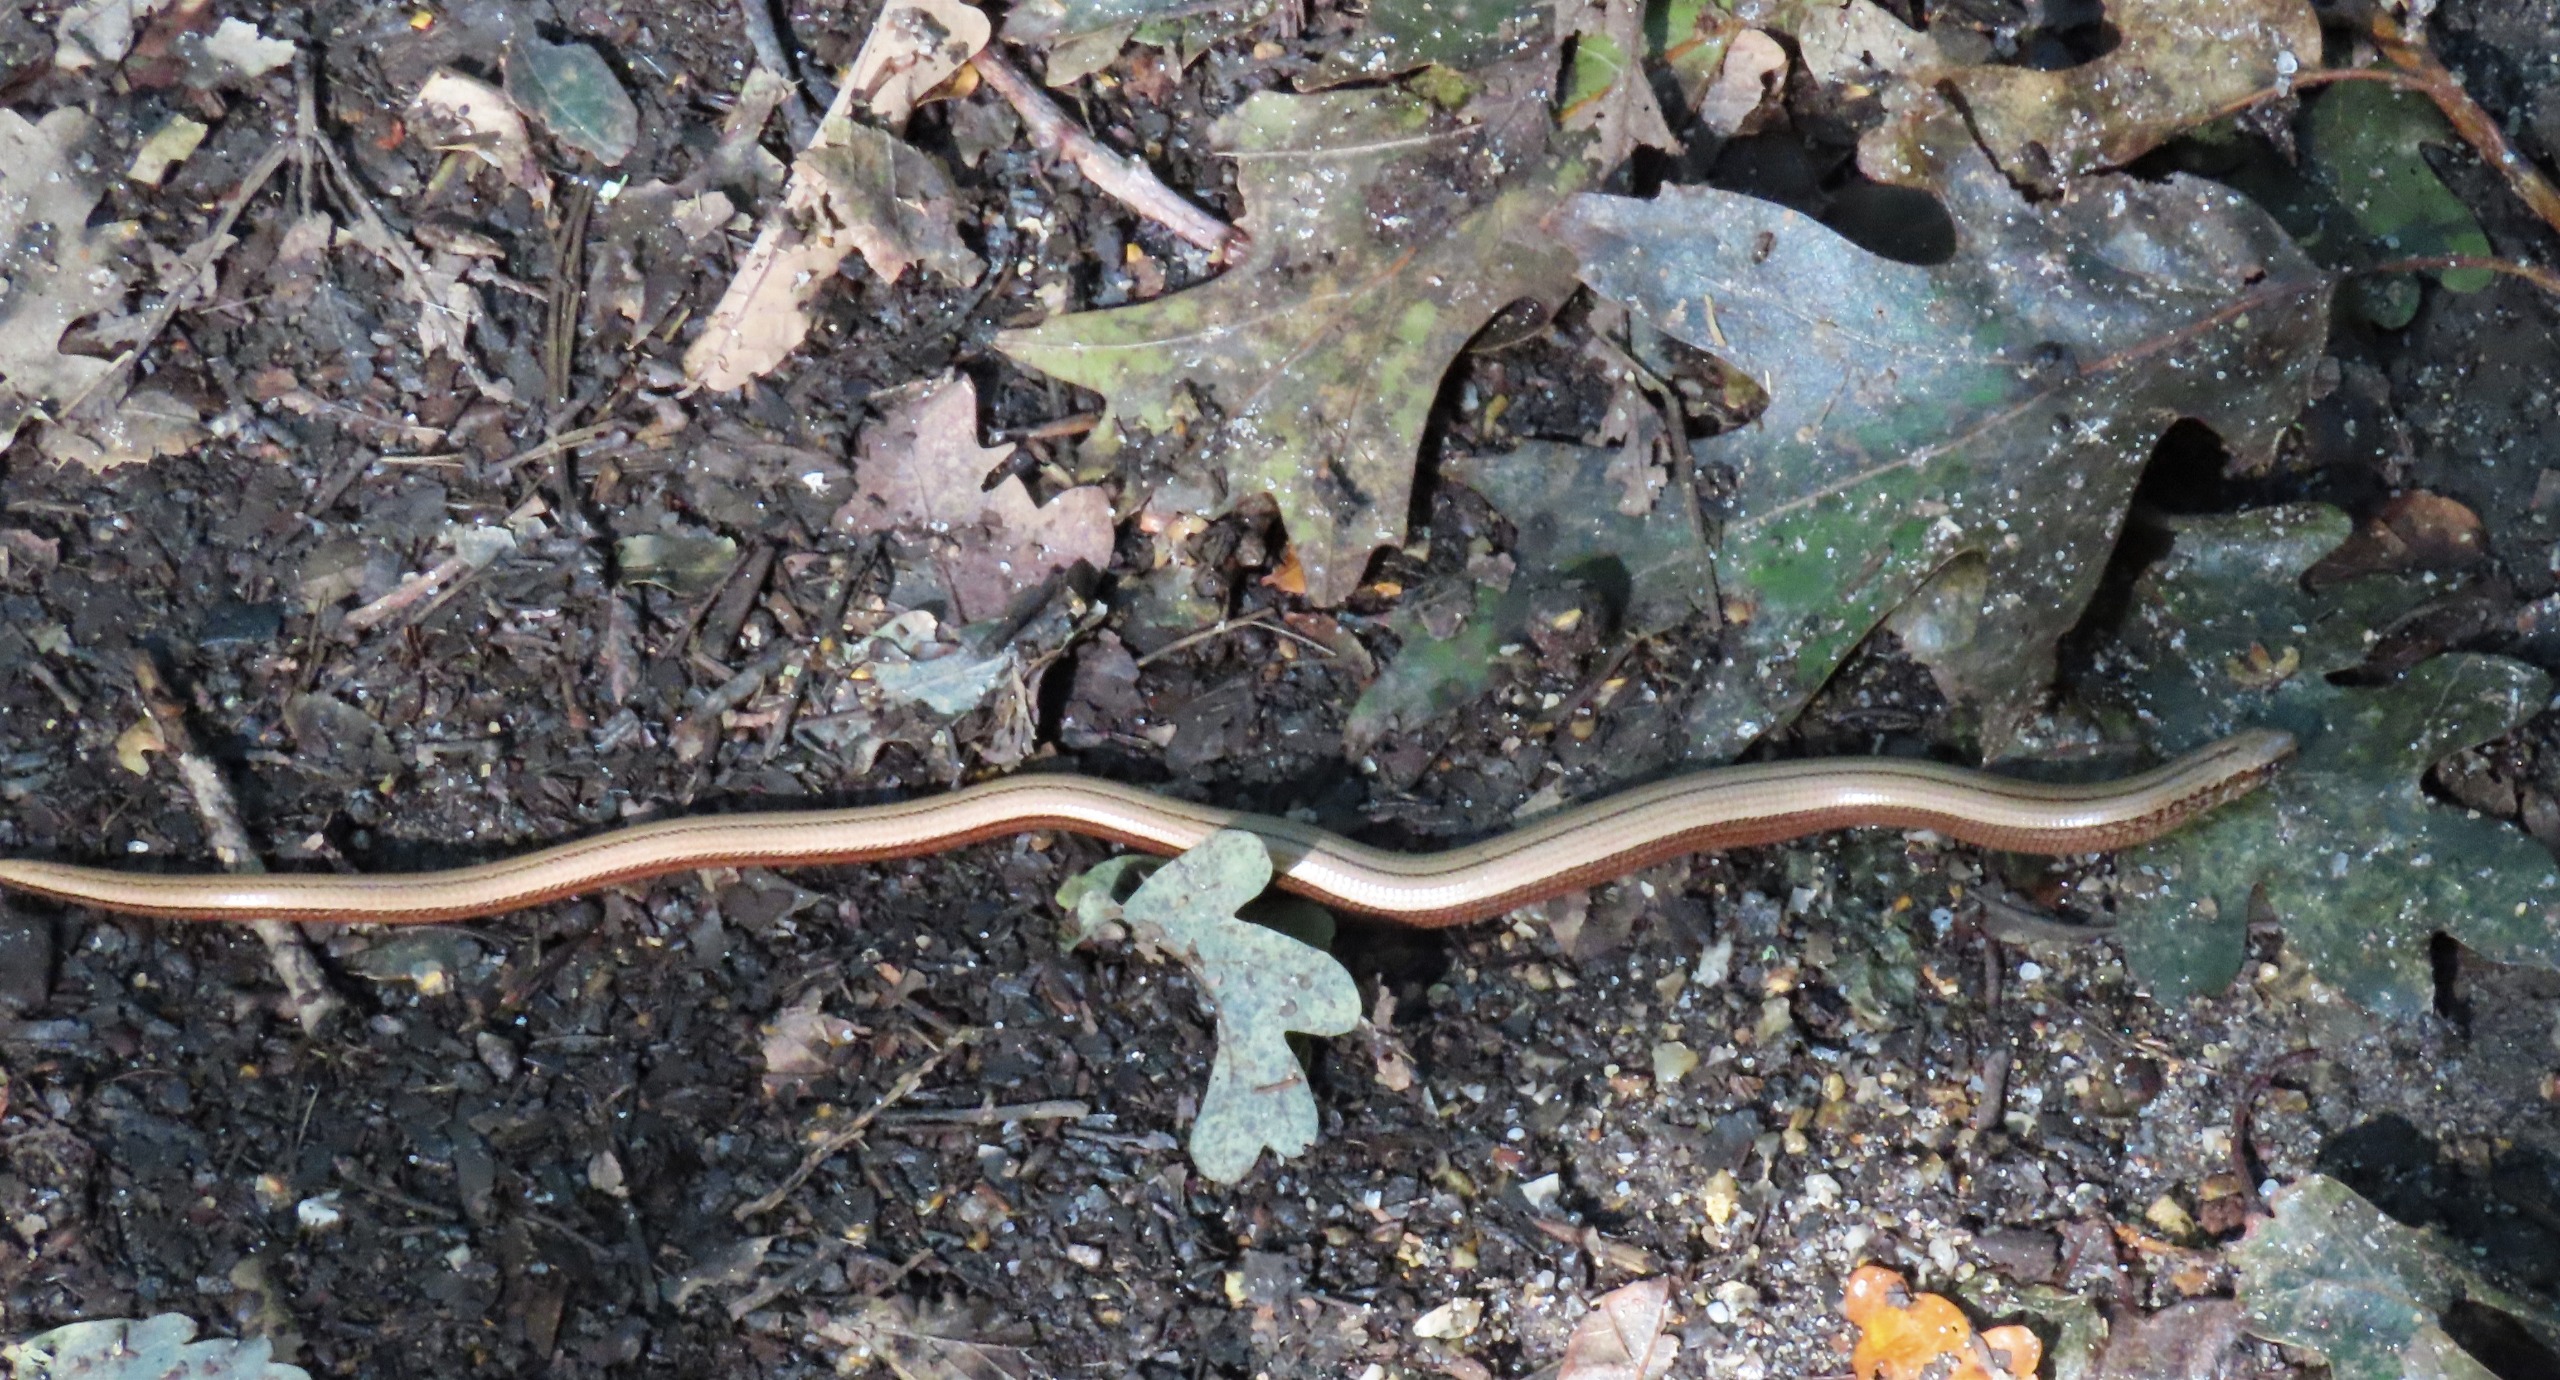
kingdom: Animalia
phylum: Chordata
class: Squamata
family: Anguidae
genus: Anguis
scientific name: Anguis fragilis
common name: Stålorm
